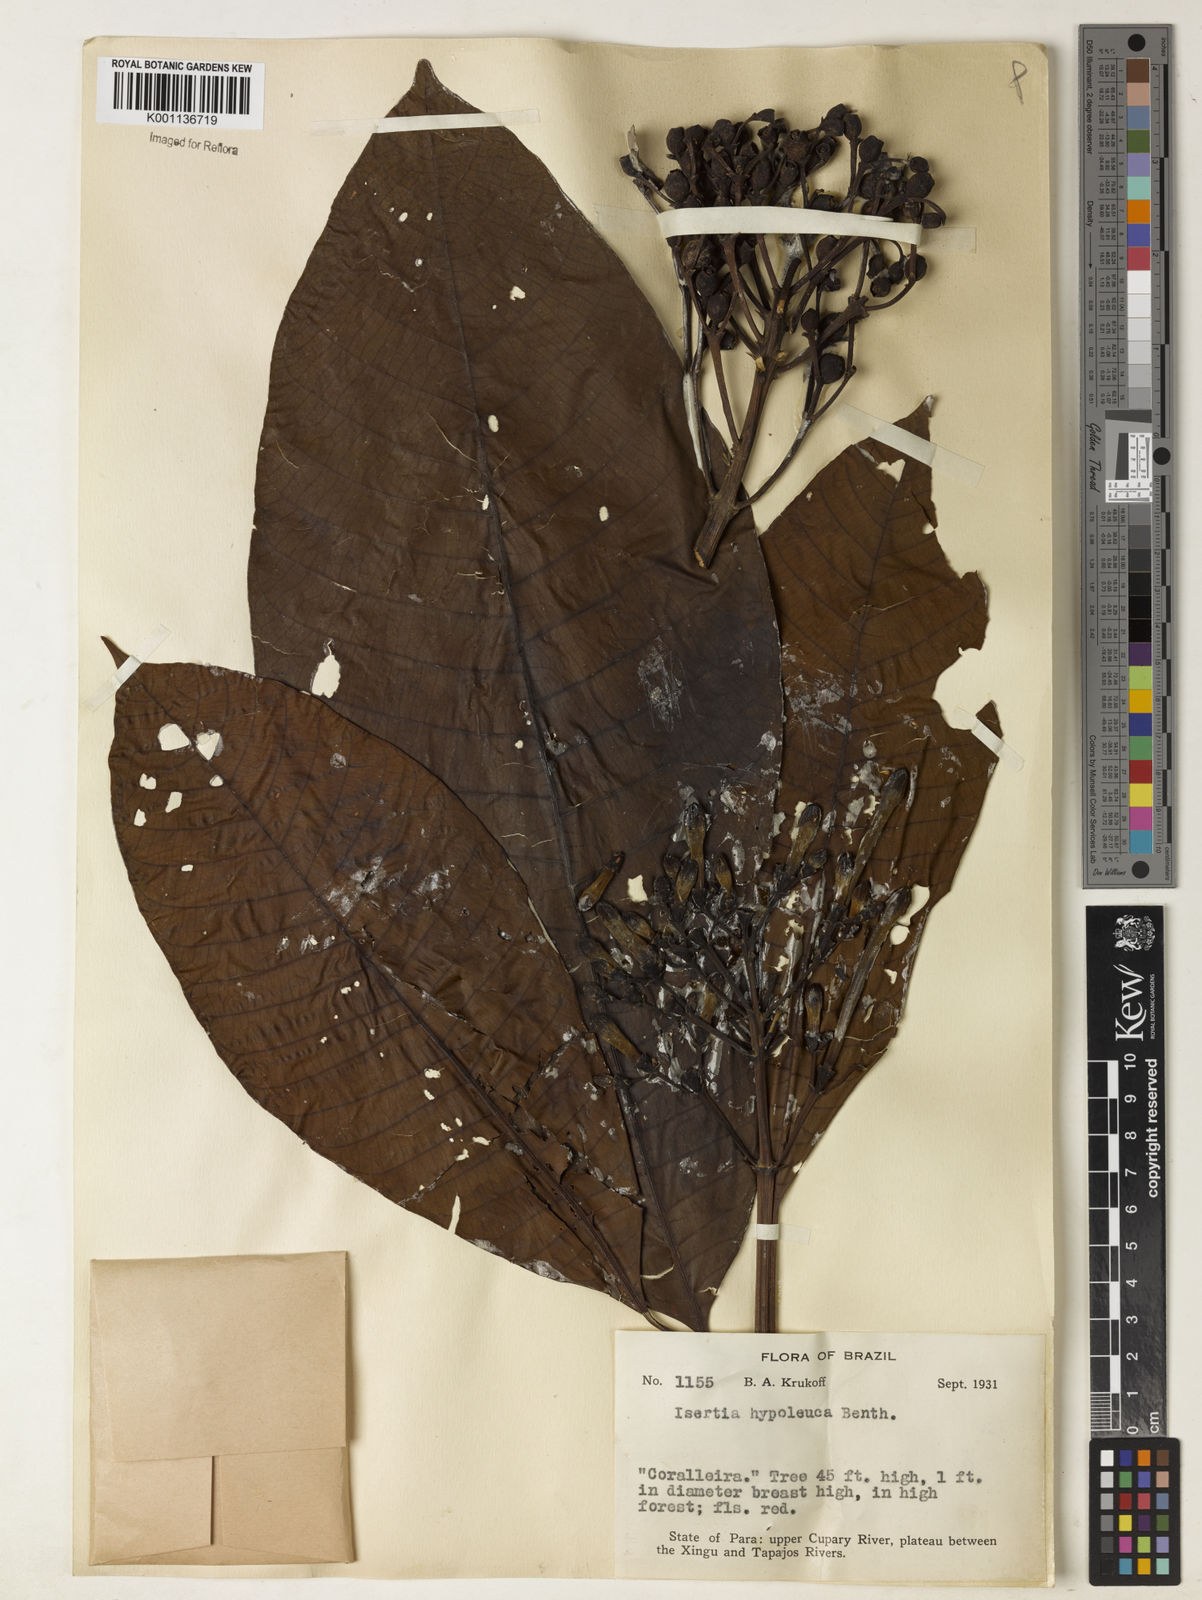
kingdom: Plantae
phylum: Tracheophyta
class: Magnoliopsida
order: Gentianales
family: Rubiaceae
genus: Isertia
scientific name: Isertia hypoleuca
